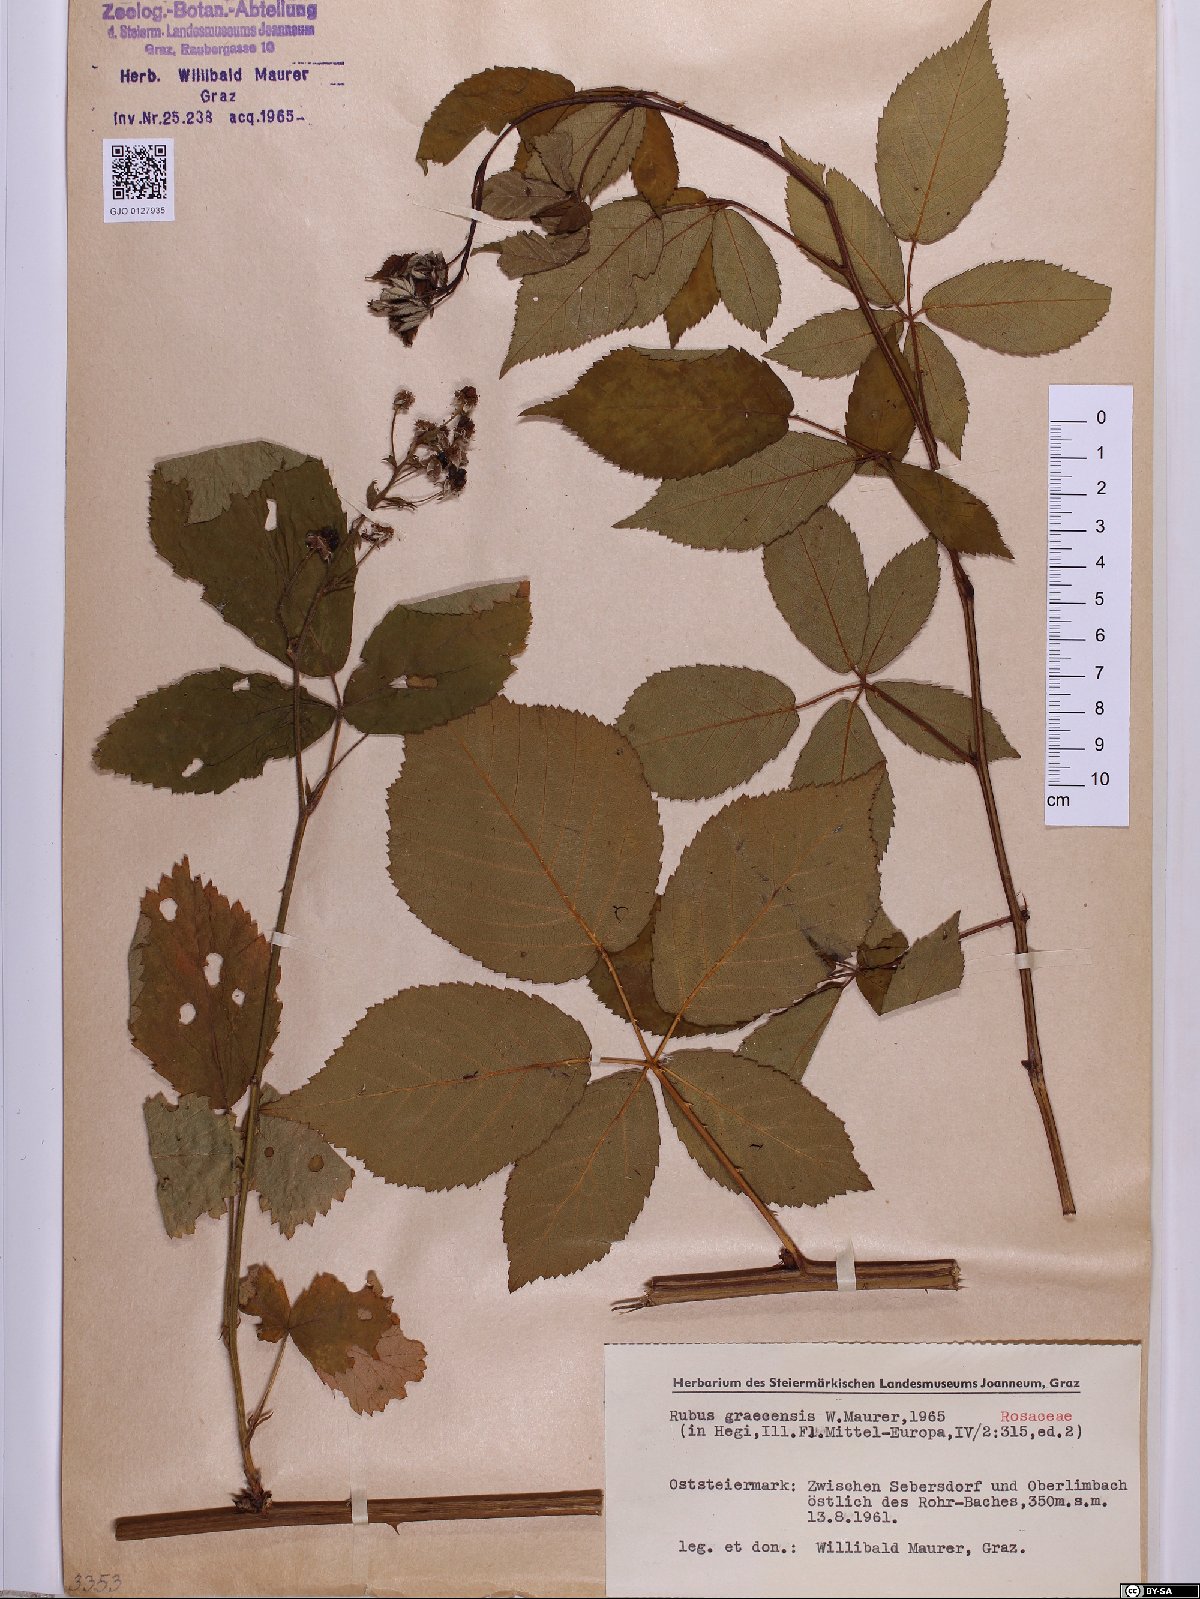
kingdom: Plantae
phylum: Tracheophyta
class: Magnoliopsida
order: Rosales
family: Rosaceae
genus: Rubus
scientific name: Rubus graecensis
